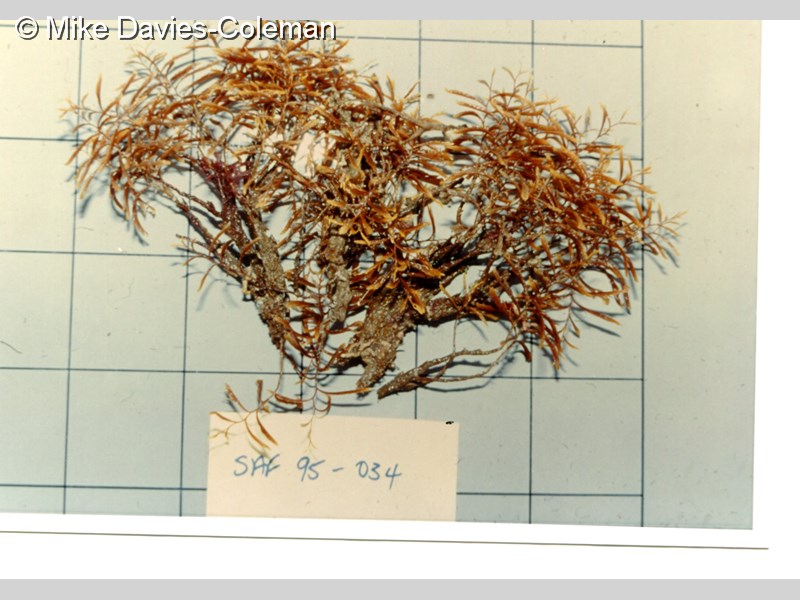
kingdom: Animalia
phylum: Cnidaria
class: Hydrozoa
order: Leptothecata
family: Aglaopheniidae
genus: Lytocarpia
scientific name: Lytocarpia formosa
